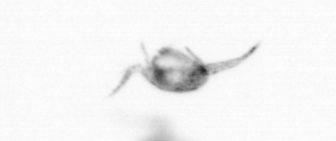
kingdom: Animalia
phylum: Arthropoda
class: Copepoda
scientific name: Copepoda
